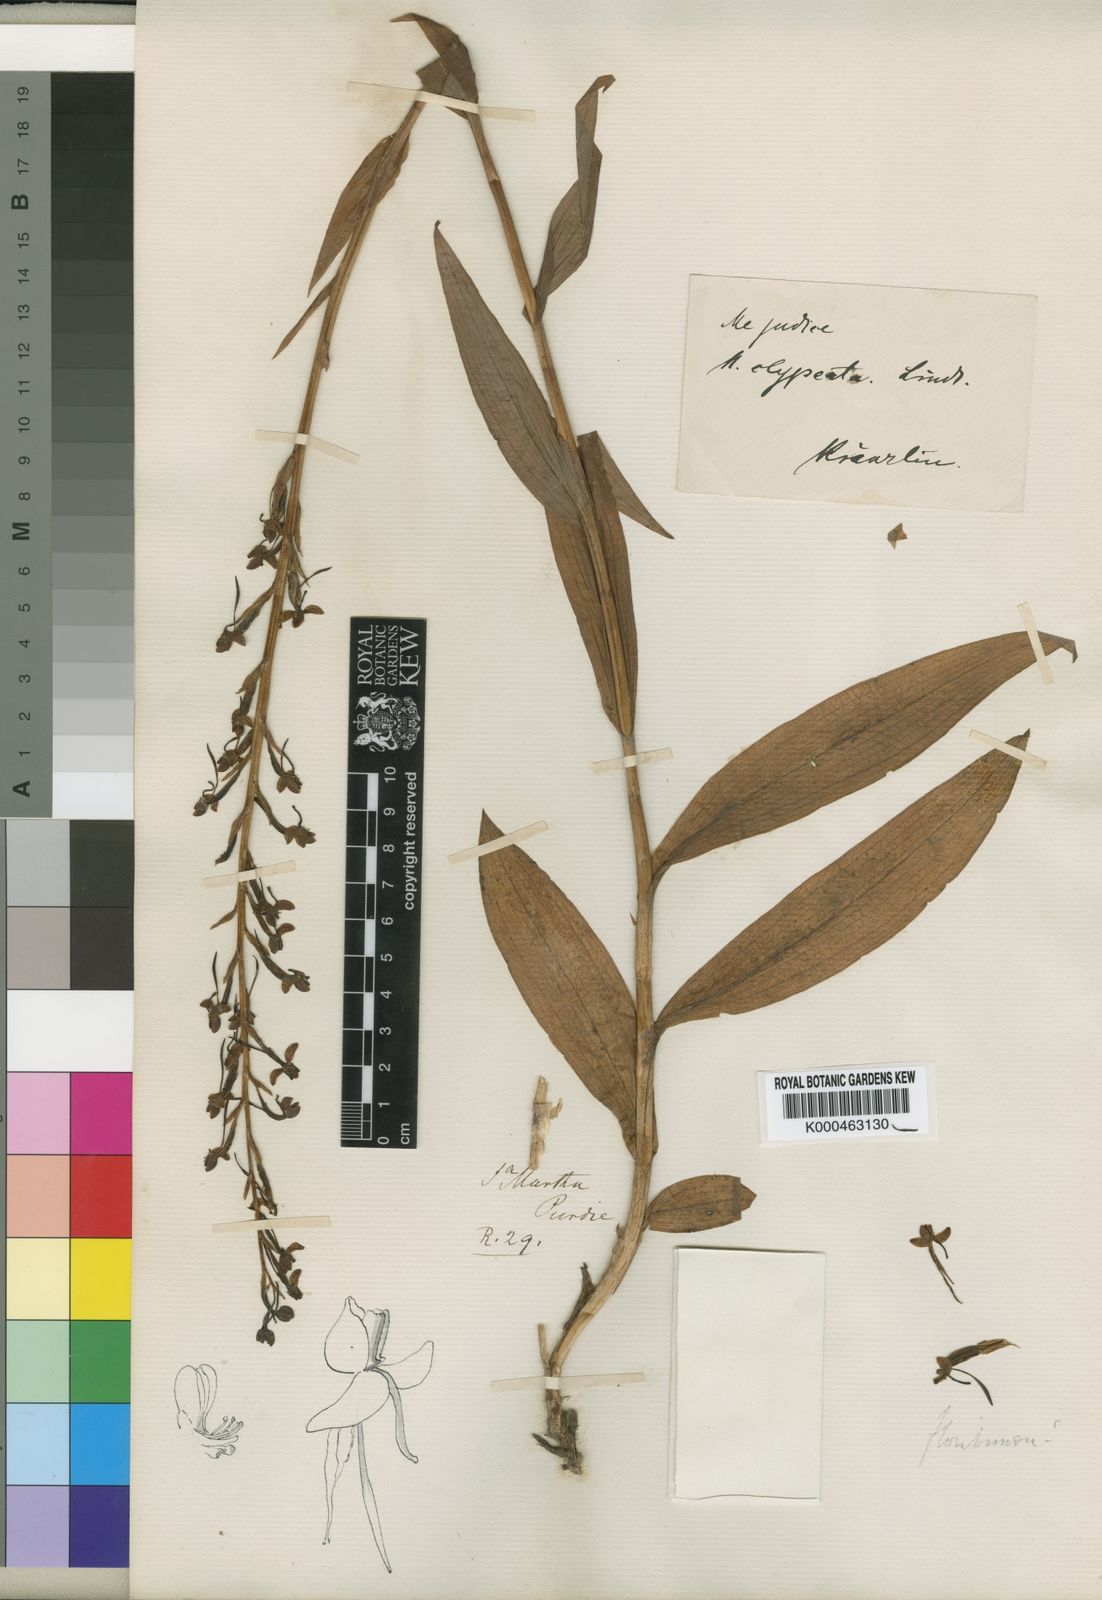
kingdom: Plantae
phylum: Tracheophyta
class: Liliopsida
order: Asparagales
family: Orchidaceae
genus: Habenaria
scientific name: Habenaria clypeata
